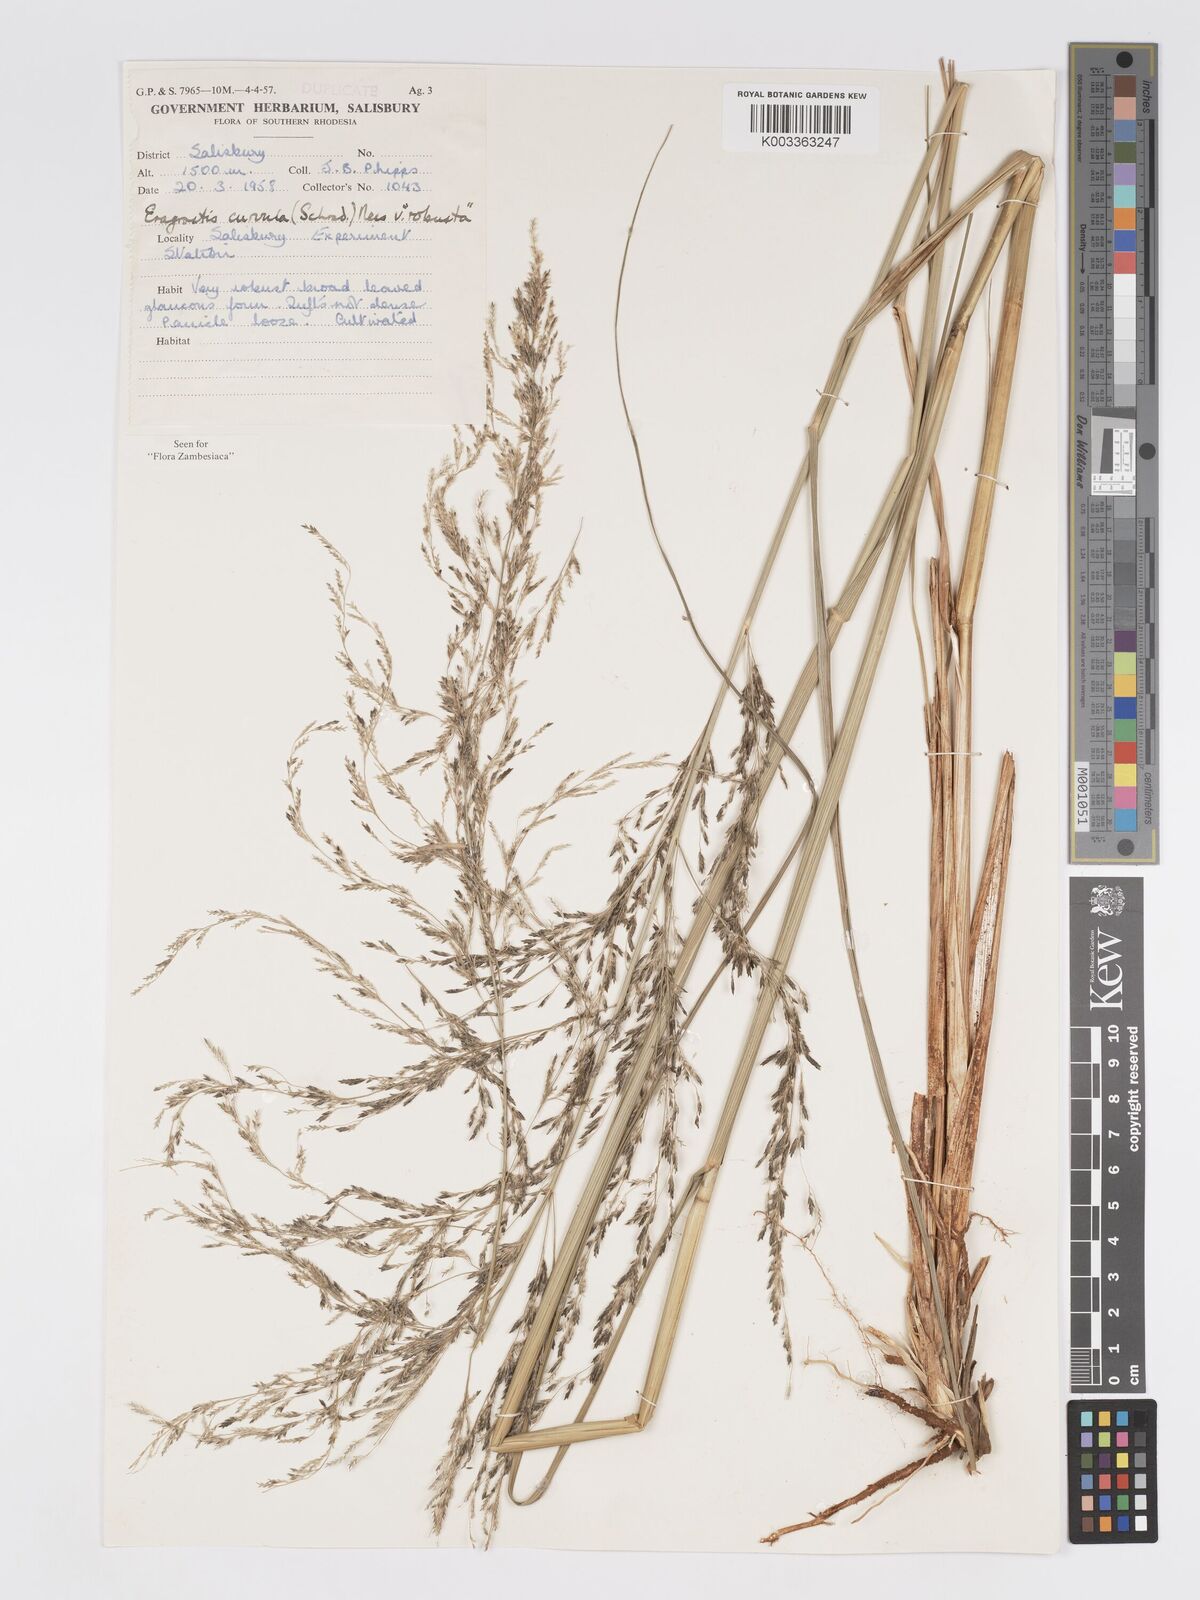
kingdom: Plantae
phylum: Tracheophyta
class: Liliopsida
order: Poales
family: Poaceae
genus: Eragrostis
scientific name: Eragrostis curvula
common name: African love-grass
